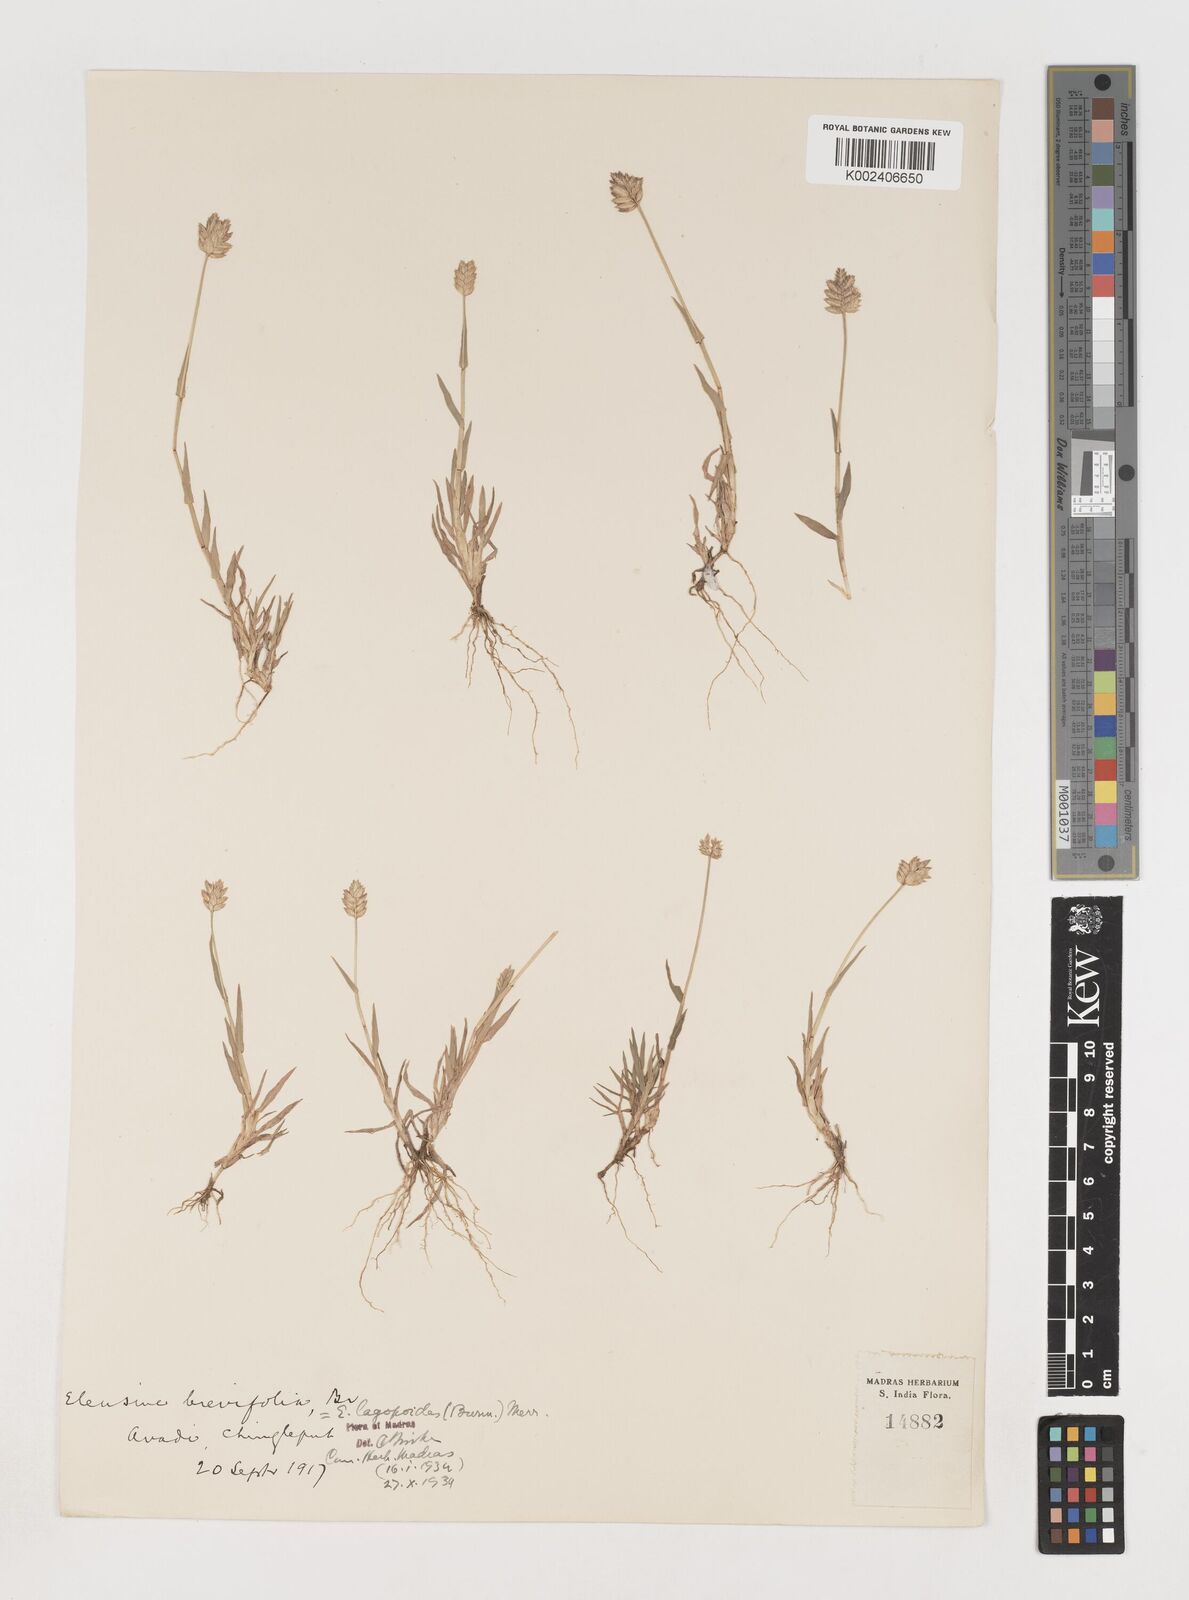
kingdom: Plantae
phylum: Tracheophyta
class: Liliopsida
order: Poales
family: Poaceae
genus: Coelachyrum
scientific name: Coelachyrum lagopoides
